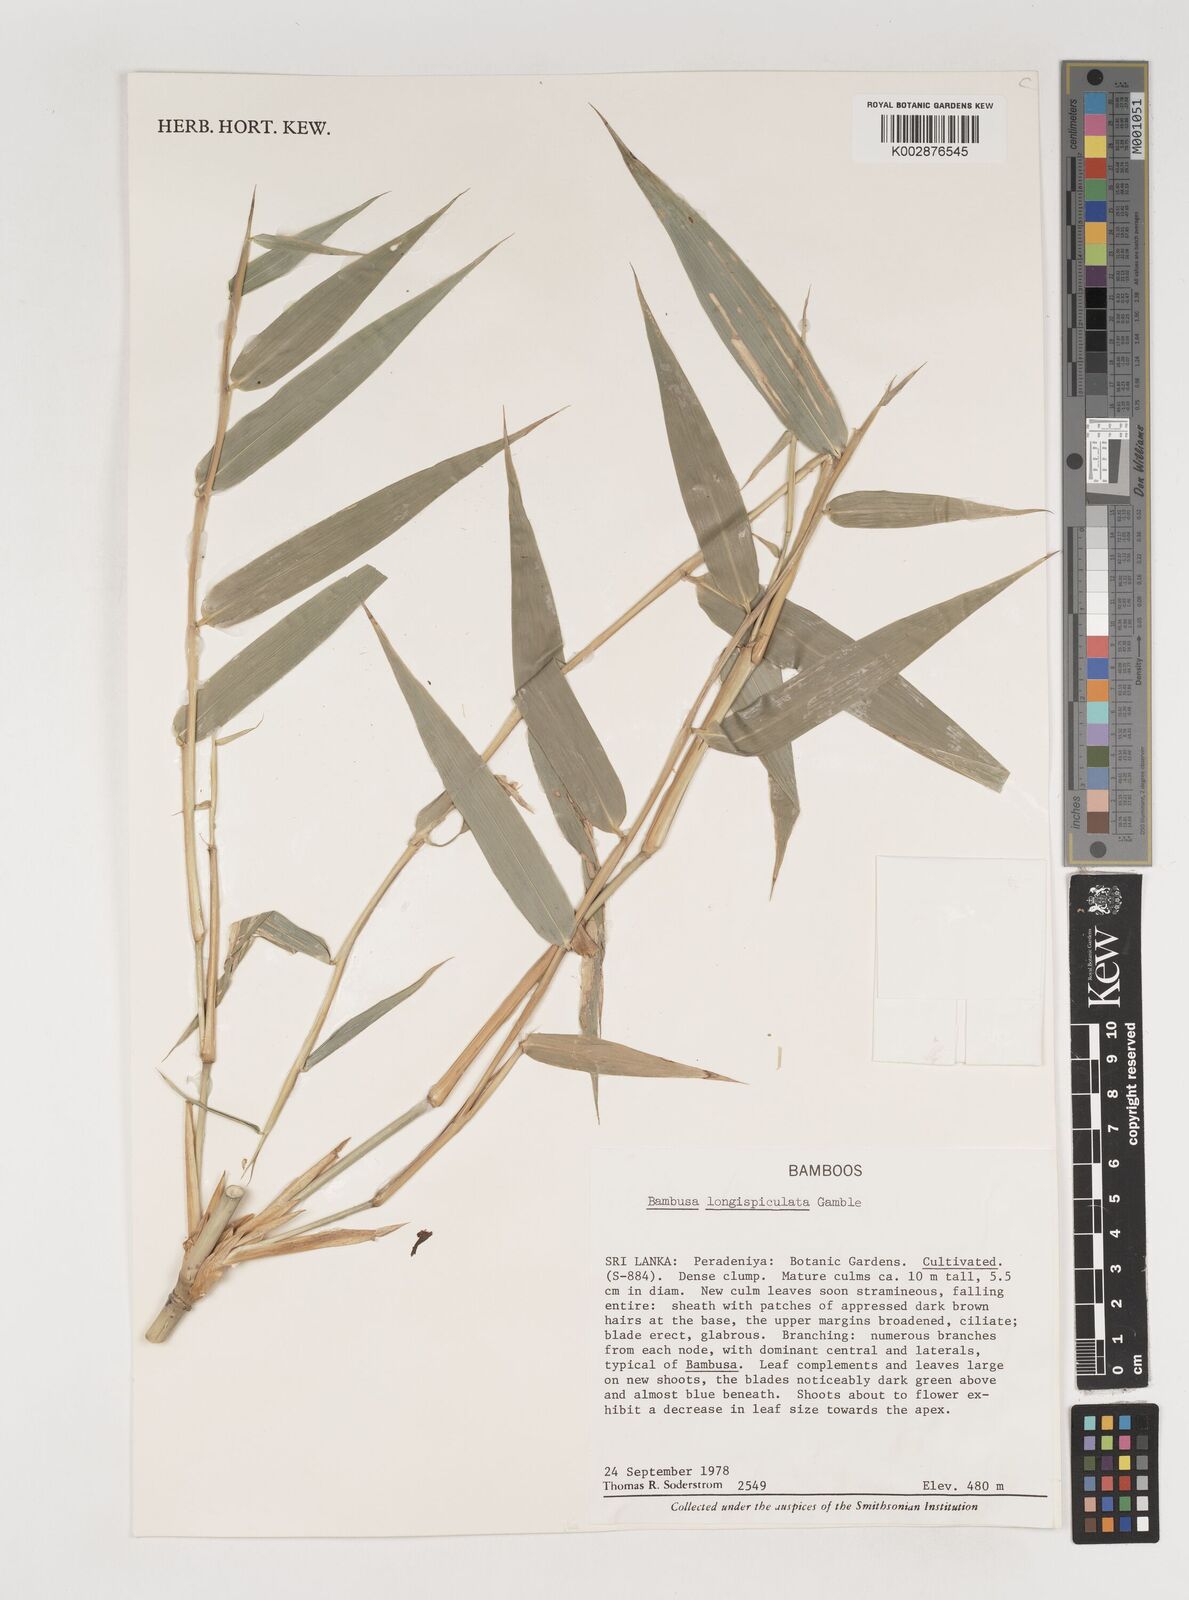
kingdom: Plantae
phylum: Tracheophyta
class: Liliopsida
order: Poales
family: Poaceae
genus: Bambusa
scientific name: Bambusa longispiculata
